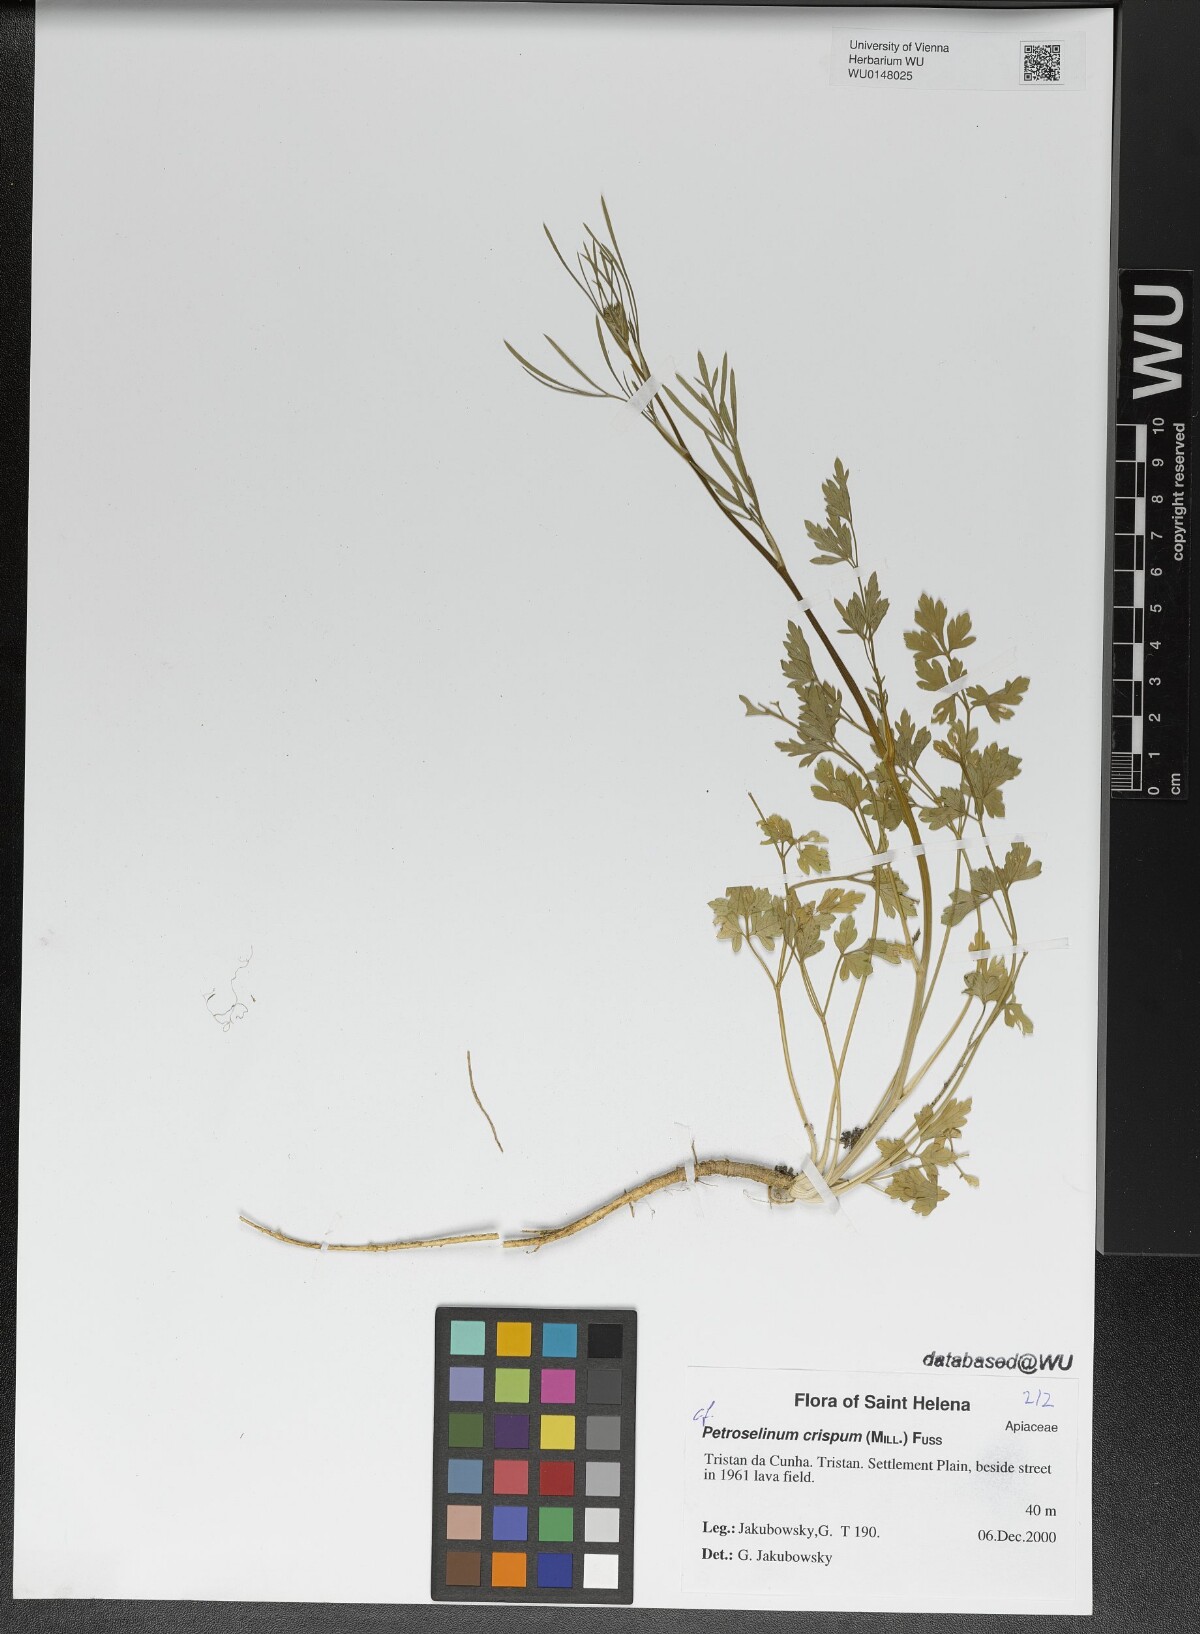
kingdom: Plantae
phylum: Tracheophyta
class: Magnoliopsida
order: Apiales
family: Apiaceae
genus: Petroselinum
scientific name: Petroselinum crispum
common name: Parsley
